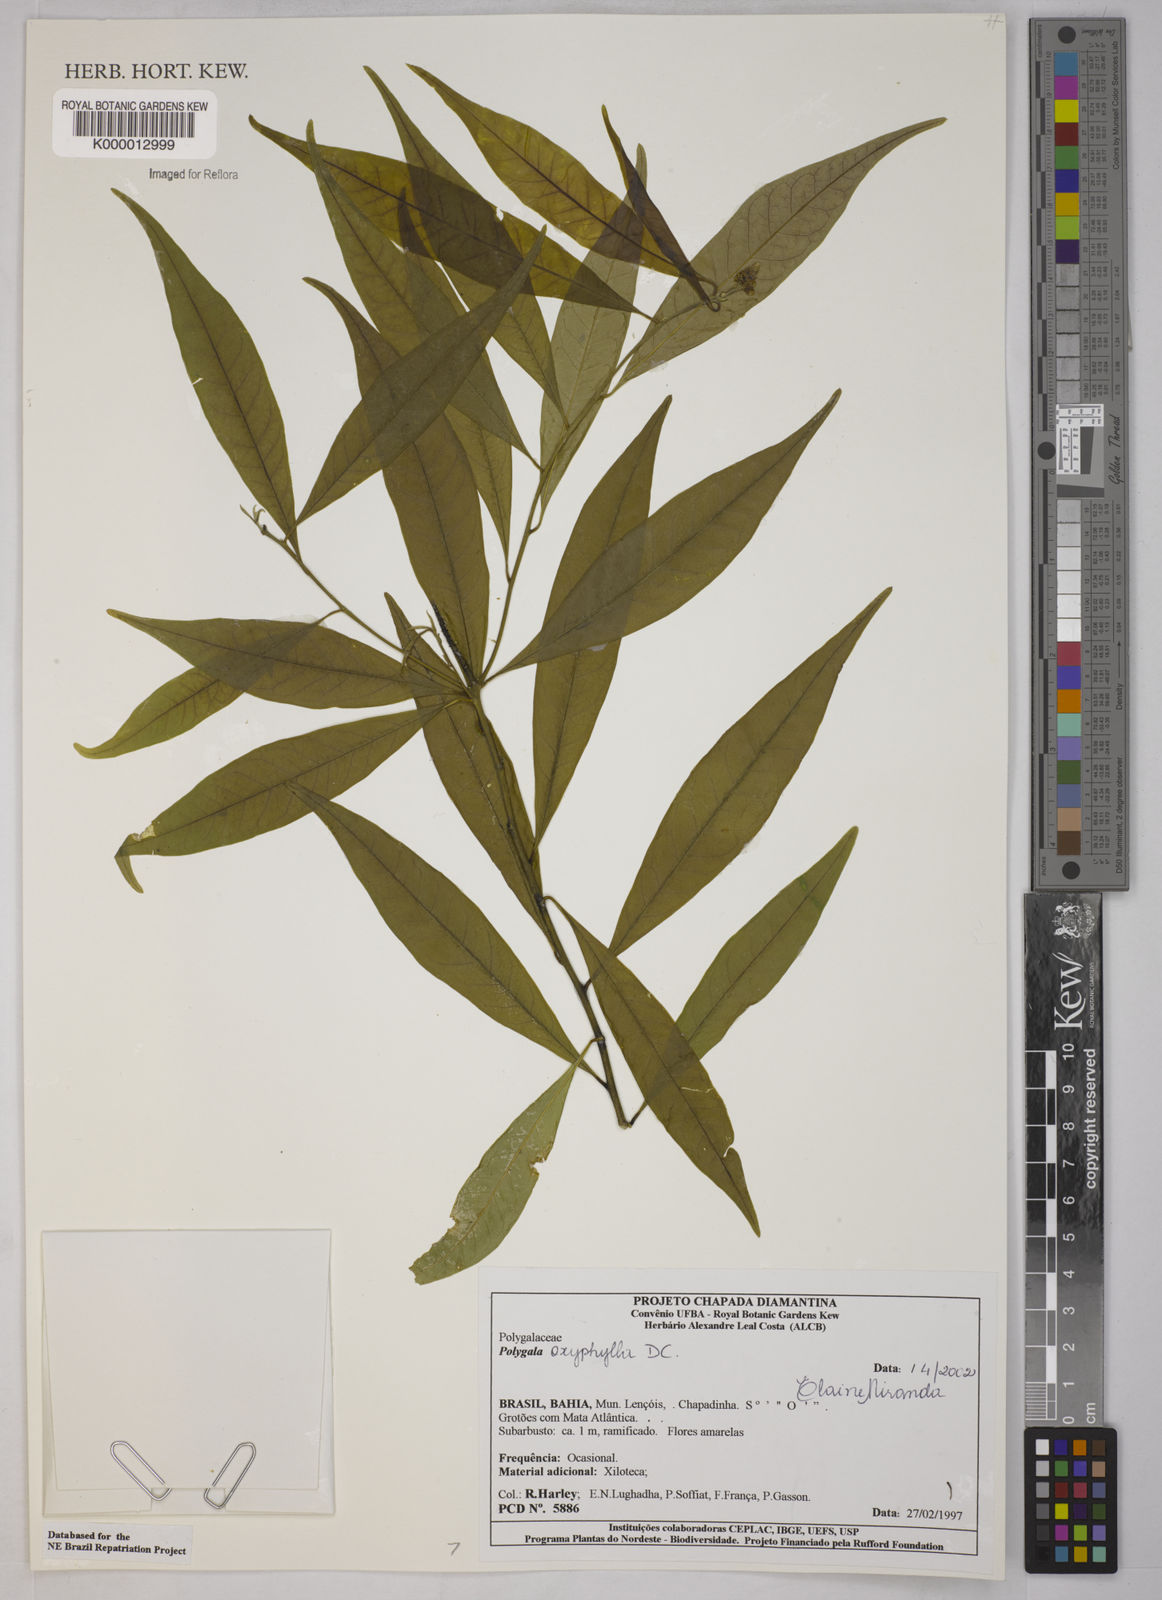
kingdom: Plantae
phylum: Tracheophyta
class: Magnoliopsida
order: Fabales
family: Polygalaceae
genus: Caamembeca
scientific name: Caamembeca oxyphylla
